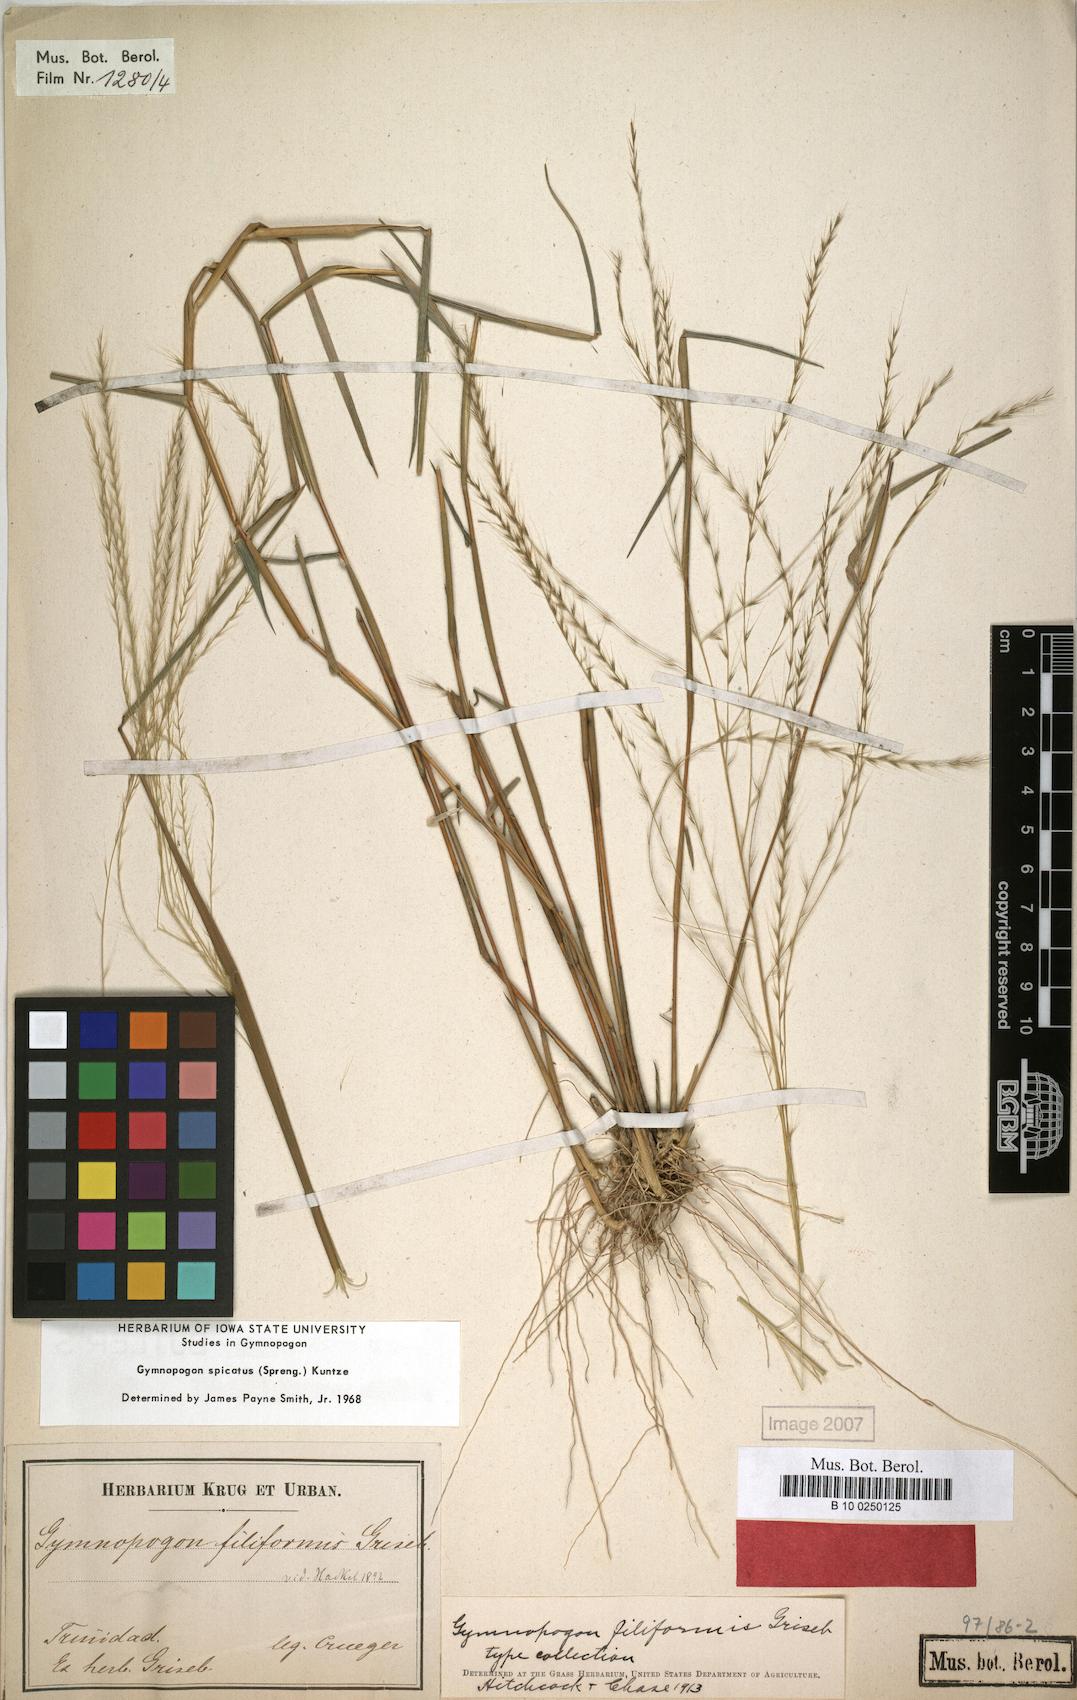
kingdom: Plantae
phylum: Tracheophyta
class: Liliopsida
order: Poales
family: Poaceae
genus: Gymnopogon
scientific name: Gymnopogon spicatus
